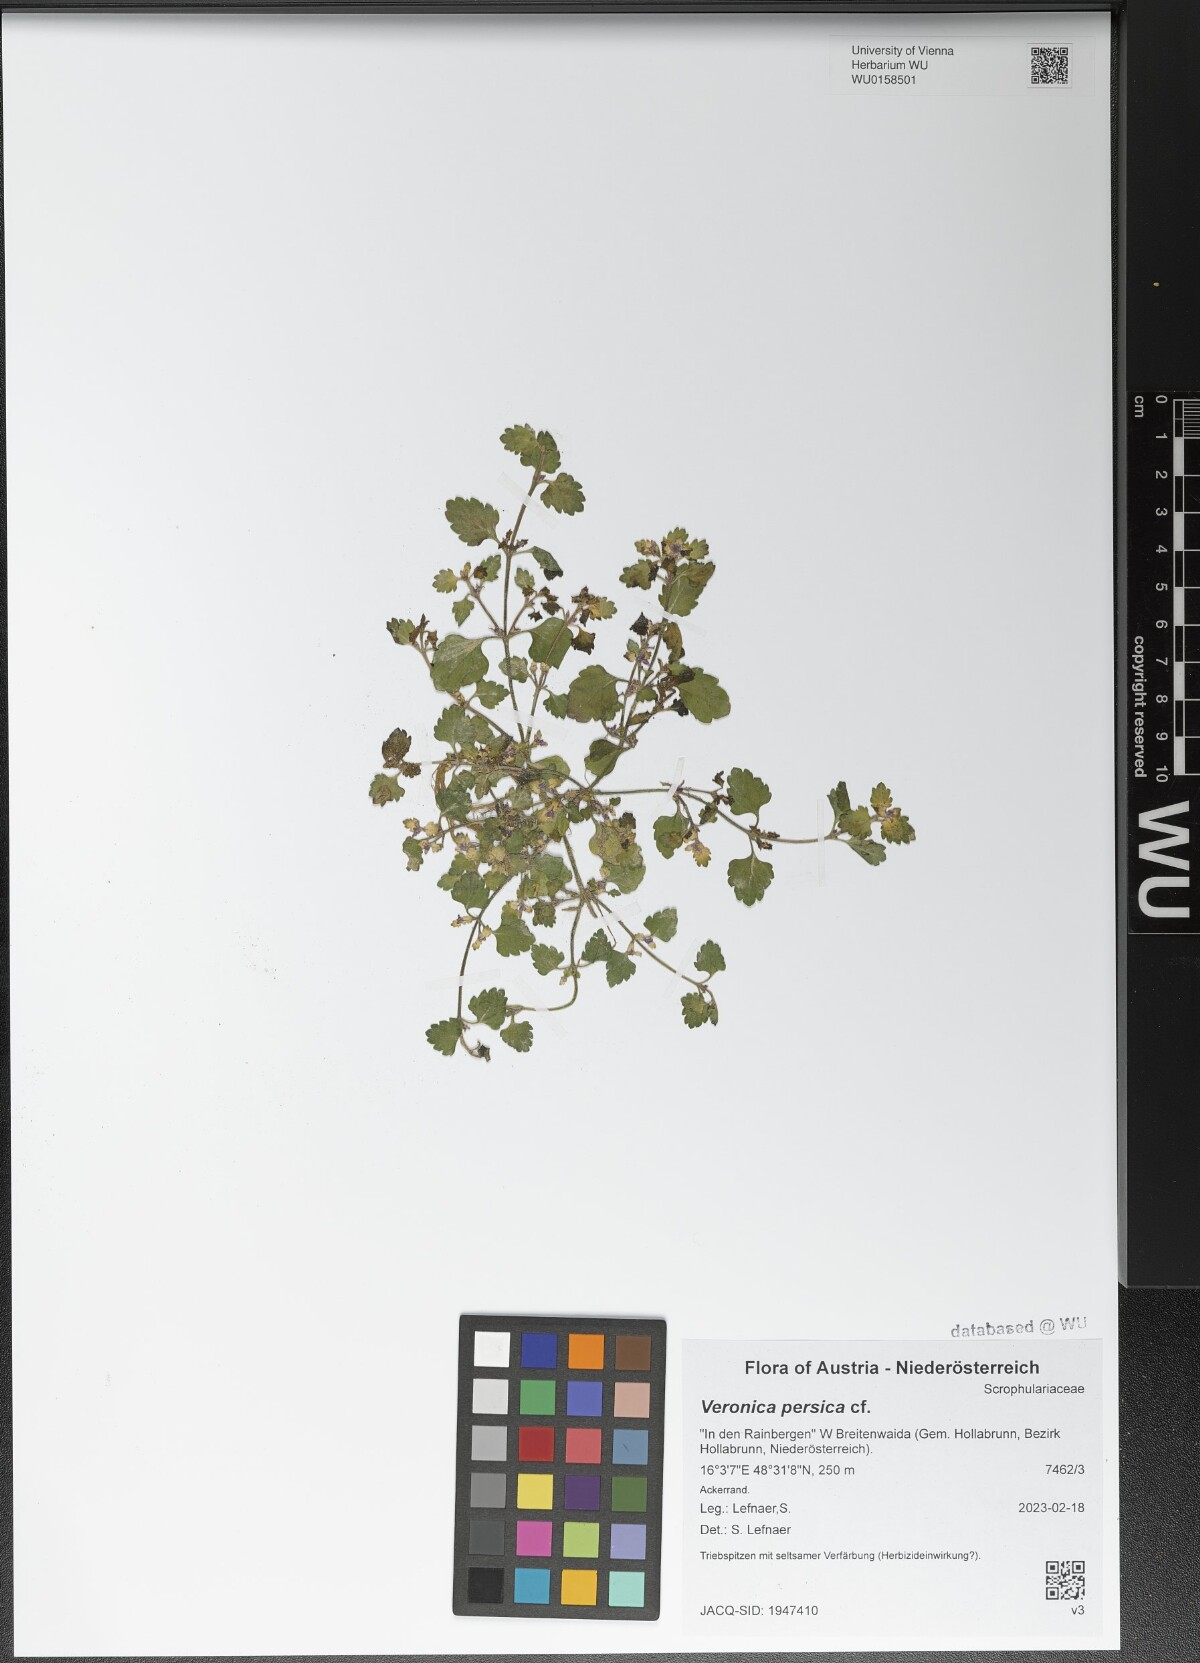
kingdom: Plantae
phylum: Tracheophyta
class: Magnoliopsida
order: Lamiales
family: Plantaginaceae
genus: Veronica
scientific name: Veronica persica
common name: Common field-speedwell
